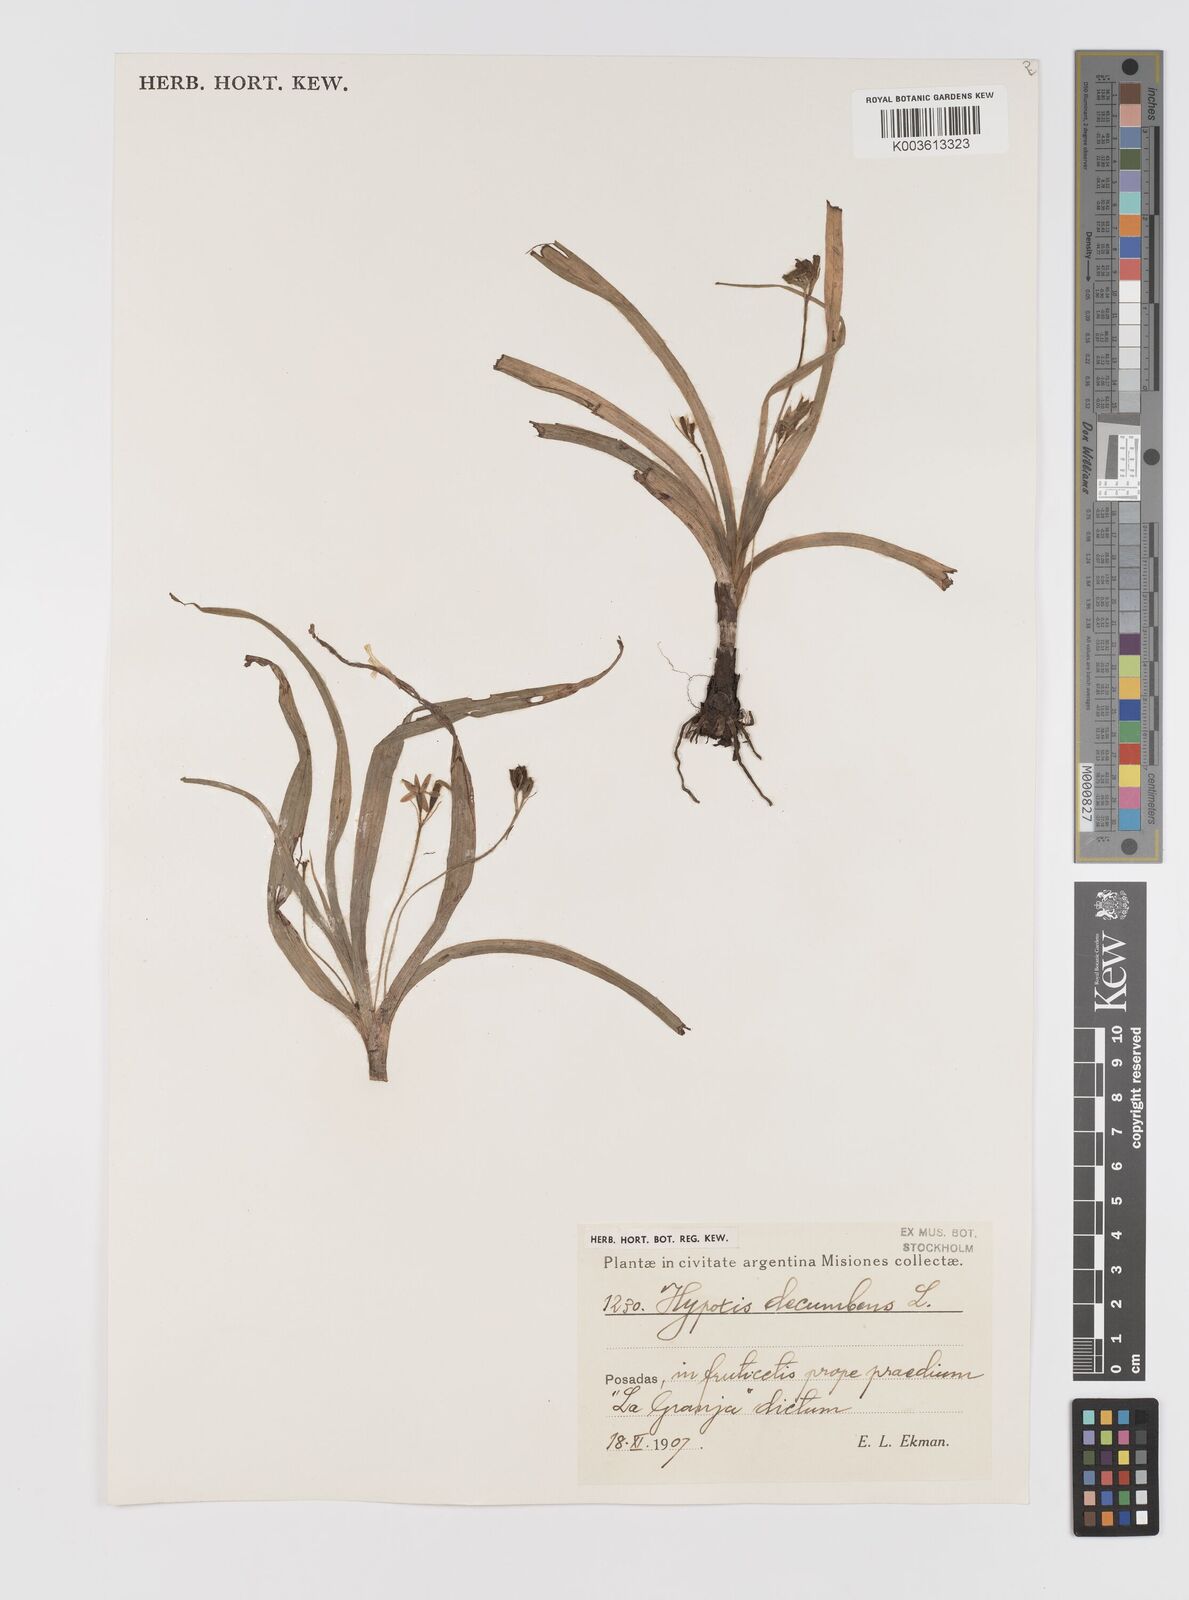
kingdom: Plantae
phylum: Tracheophyta
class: Liliopsida
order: Asparagales
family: Hypoxidaceae
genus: Hypoxis
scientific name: Hypoxis decumbens
